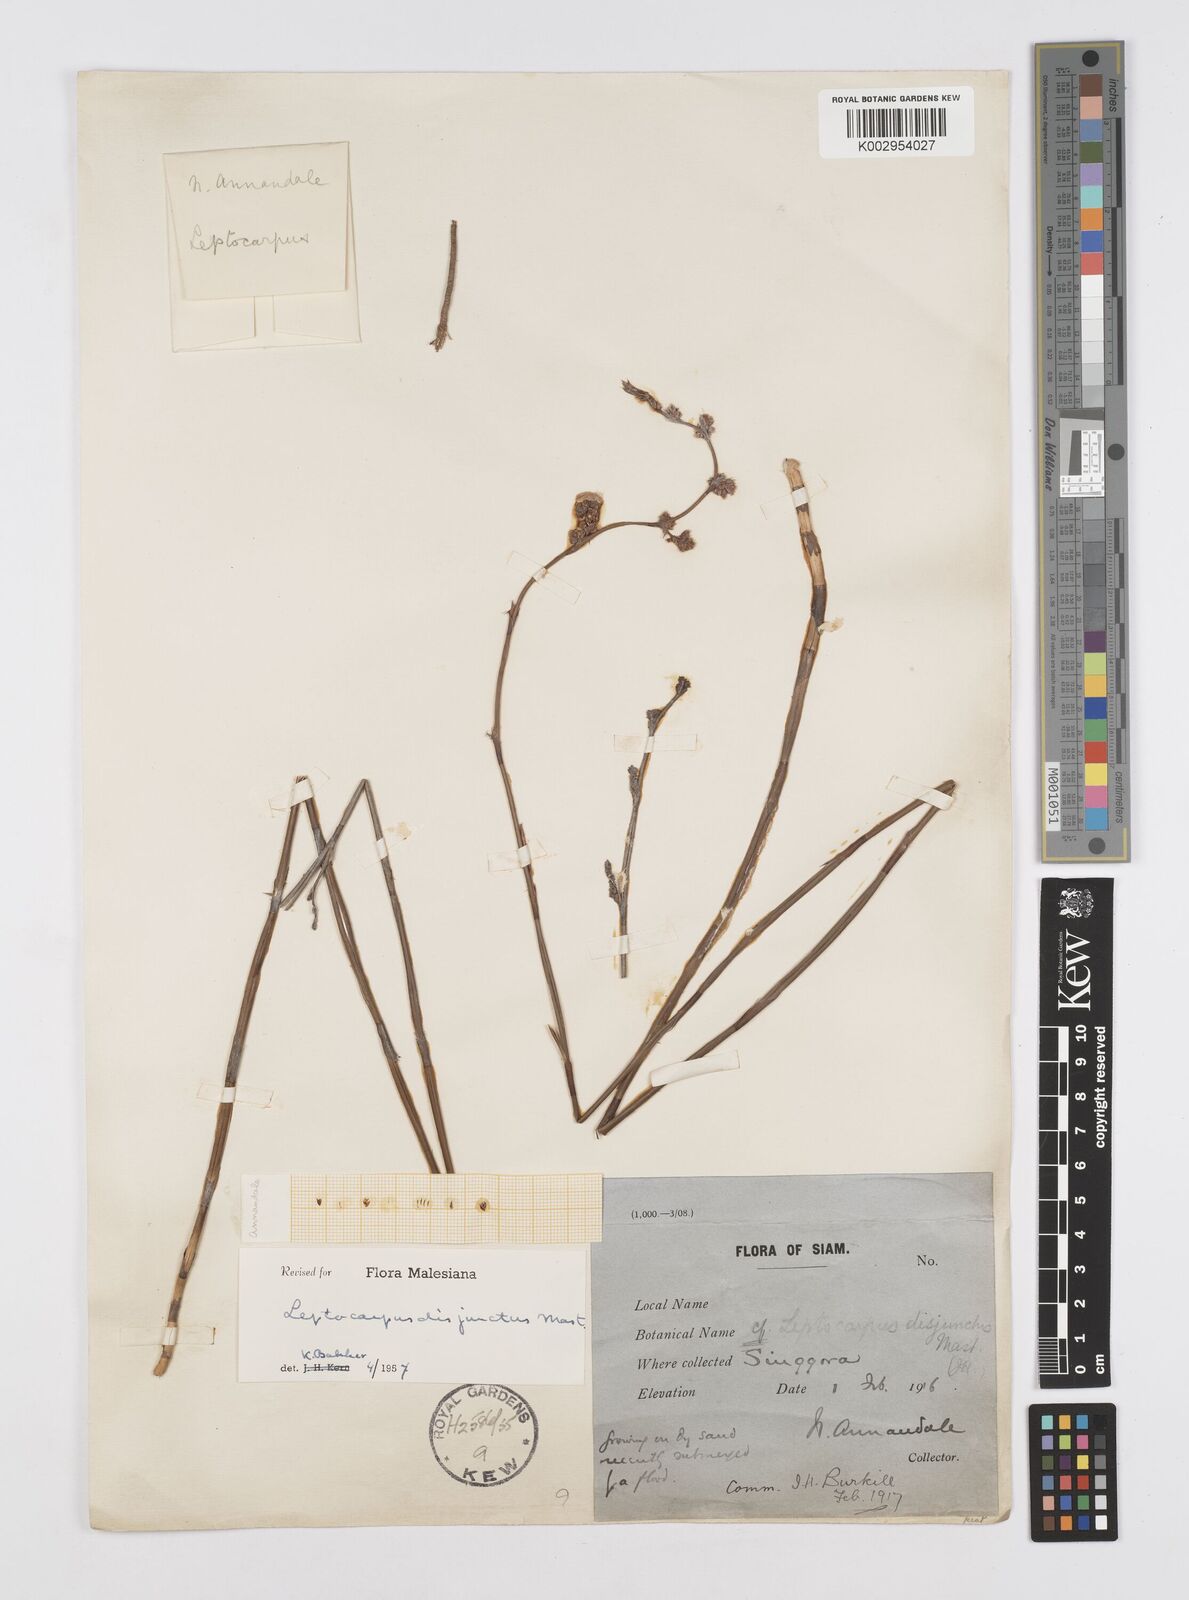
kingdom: Plantae
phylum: Tracheophyta
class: Liliopsida
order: Poales
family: Restionaceae
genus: Dapsilanthus
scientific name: Dapsilanthus disjunctus
